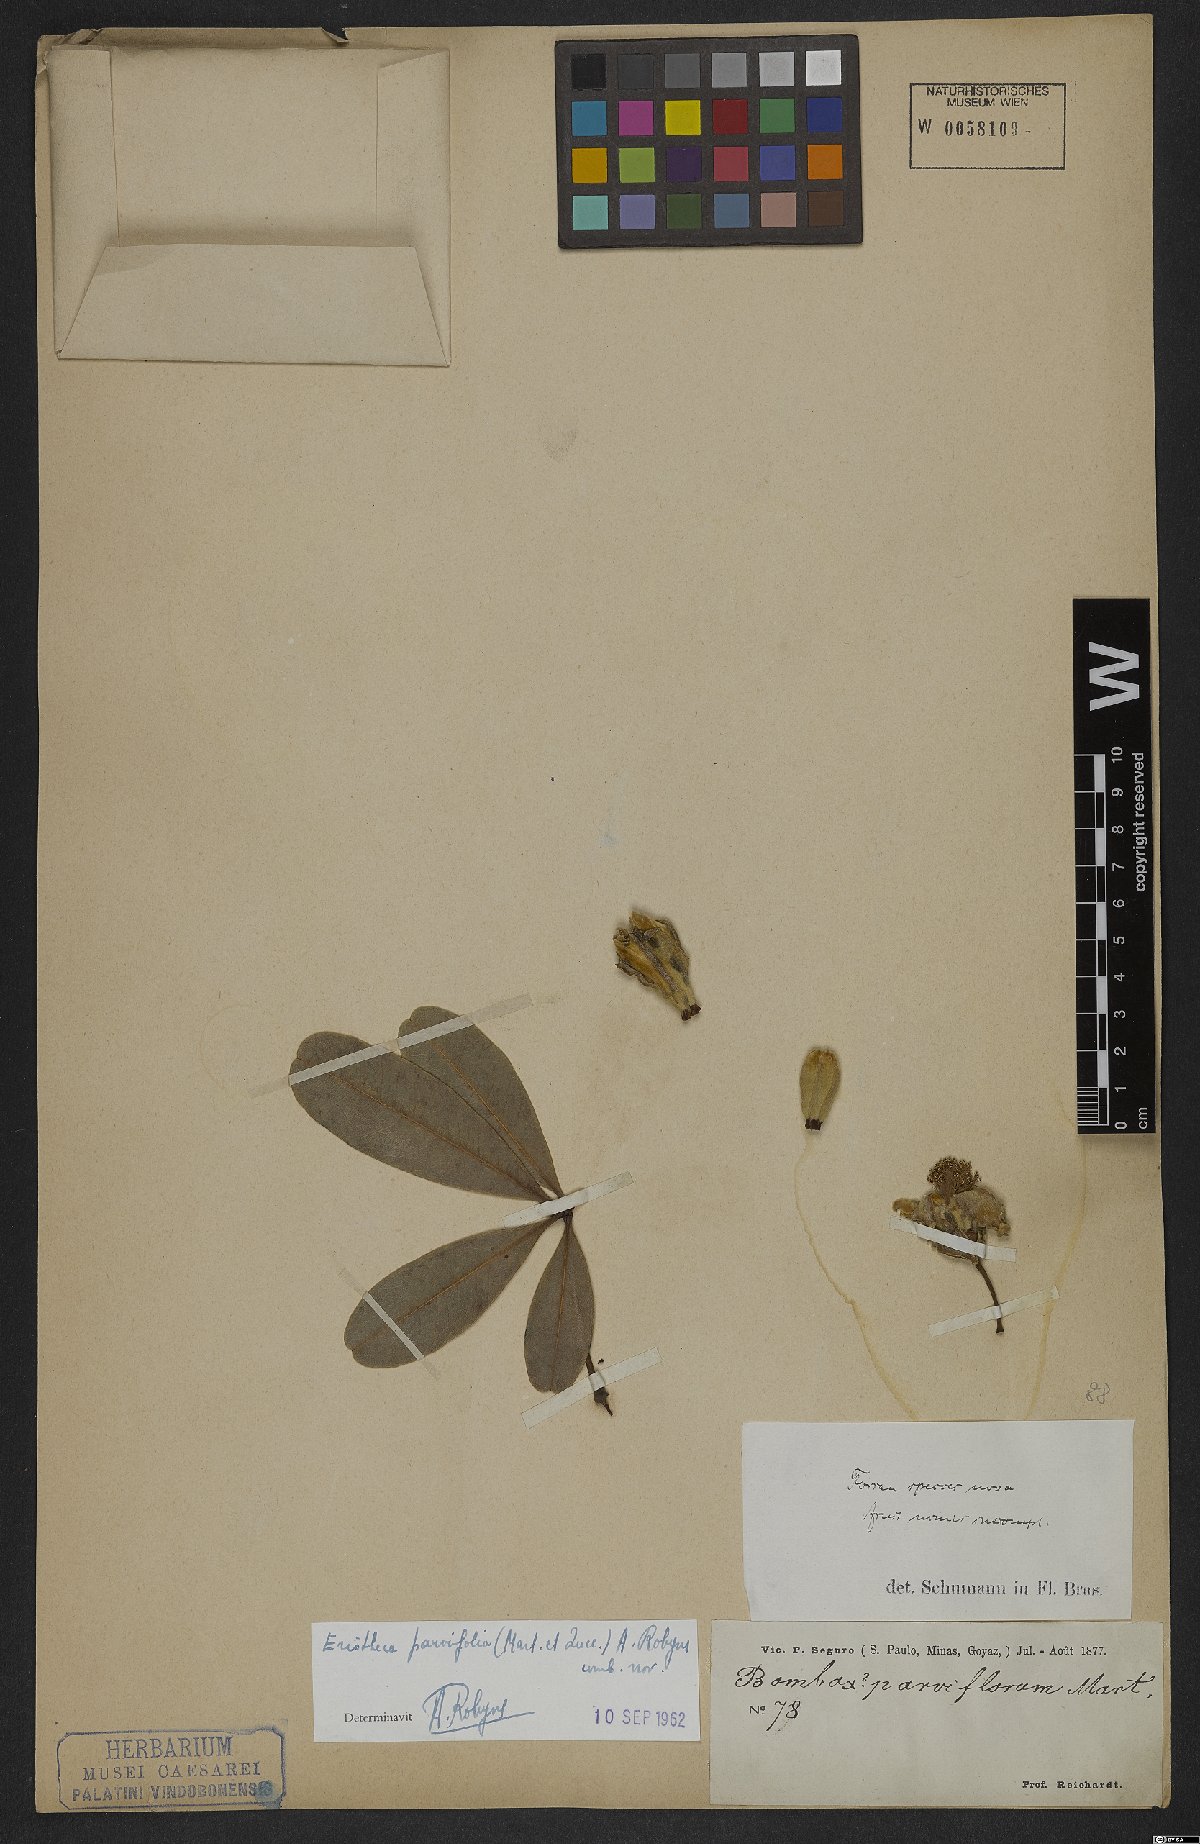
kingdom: Plantae
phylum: Tracheophyta
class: Magnoliopsida
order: Malvales
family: Malvaceae
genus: Eriotheca
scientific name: Eriotheca parvifolia
